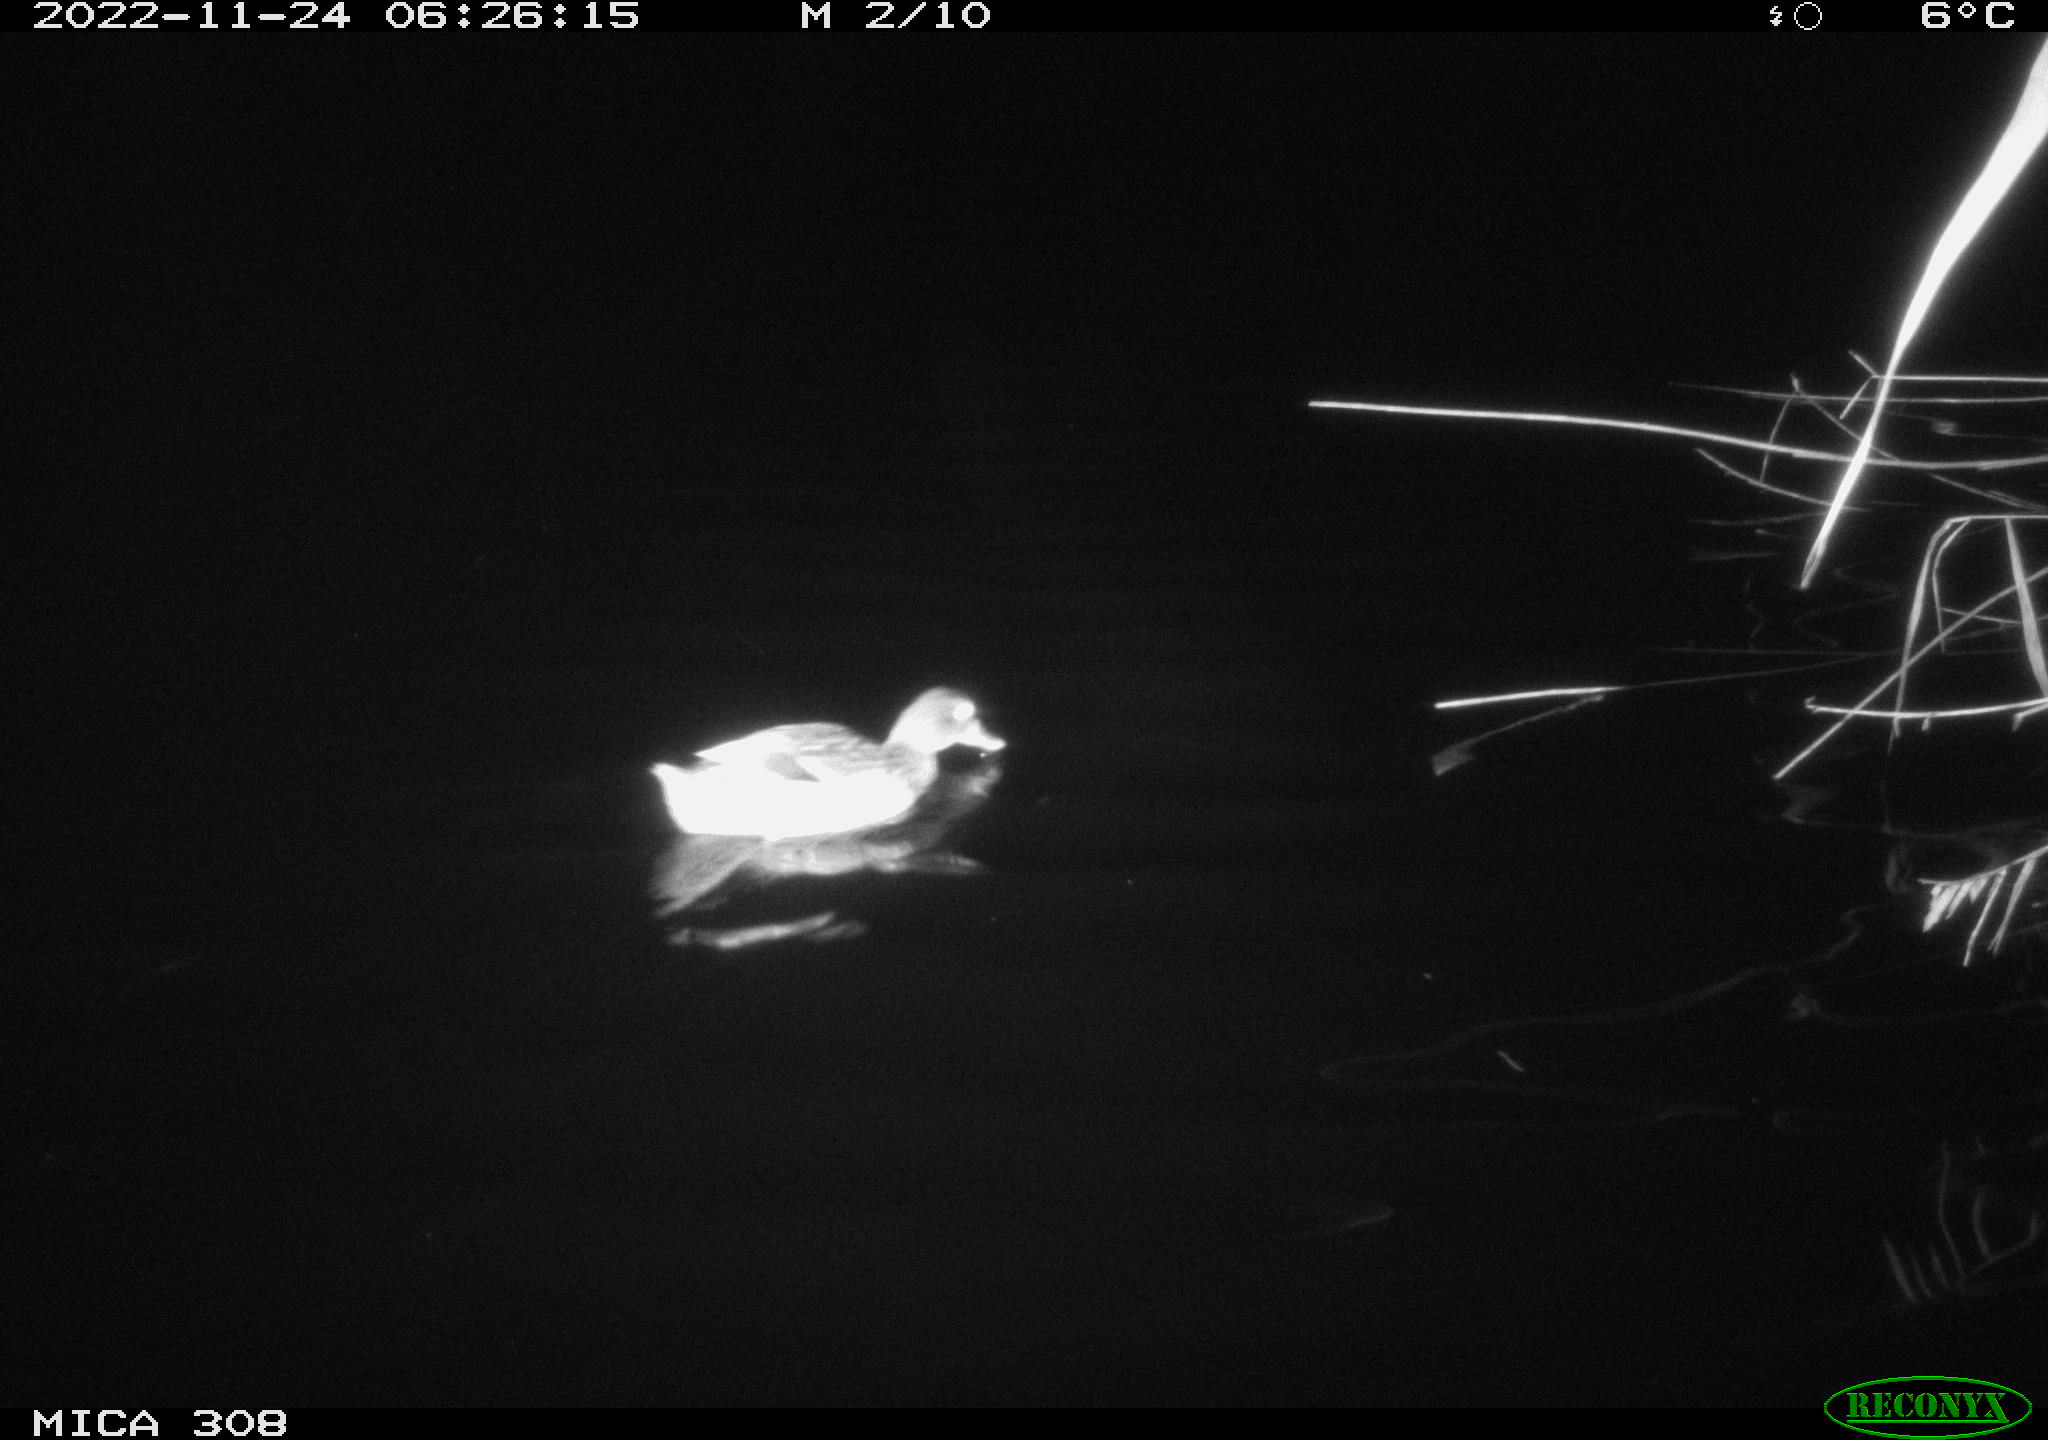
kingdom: Animalia
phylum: Chordata
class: Aves
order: Anseriformes
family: Anatidae
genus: Anas
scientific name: Anas
